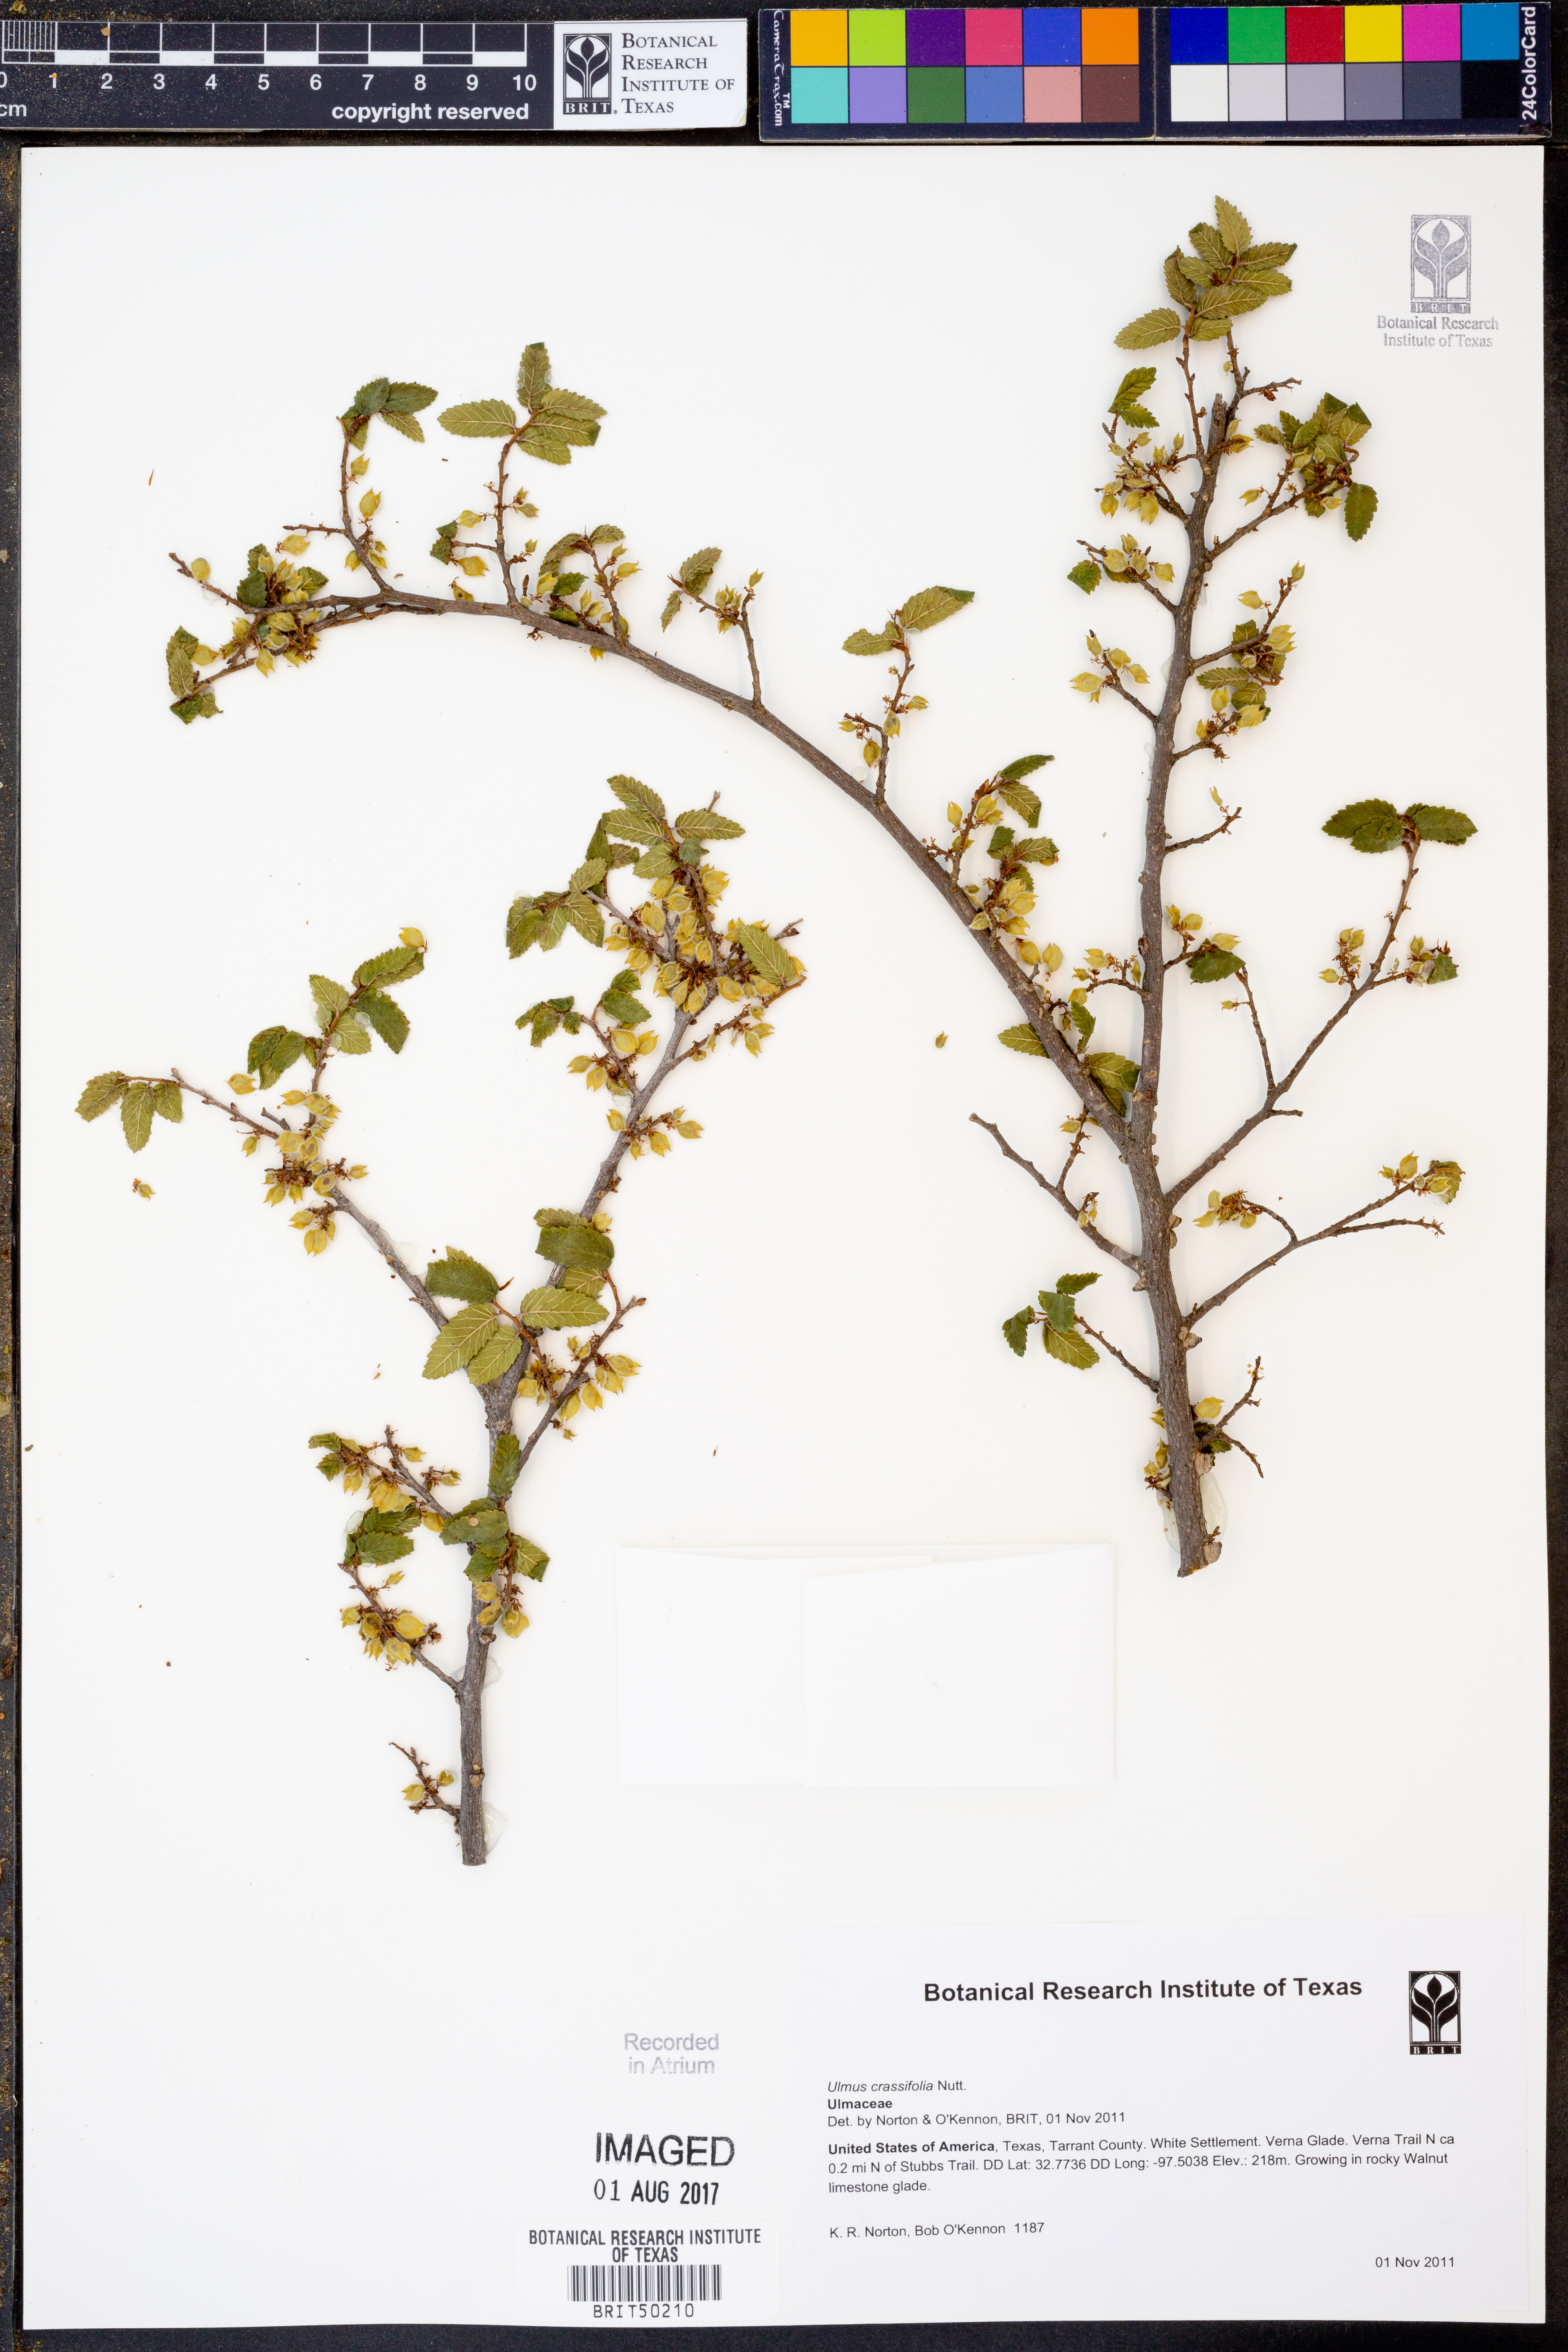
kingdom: Plantae
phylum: Tracheophyta
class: Magnoliopsida
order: Rosales
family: Ulmaceae
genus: Ulmus
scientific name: Ulmus crassifolia
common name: Basket elm
